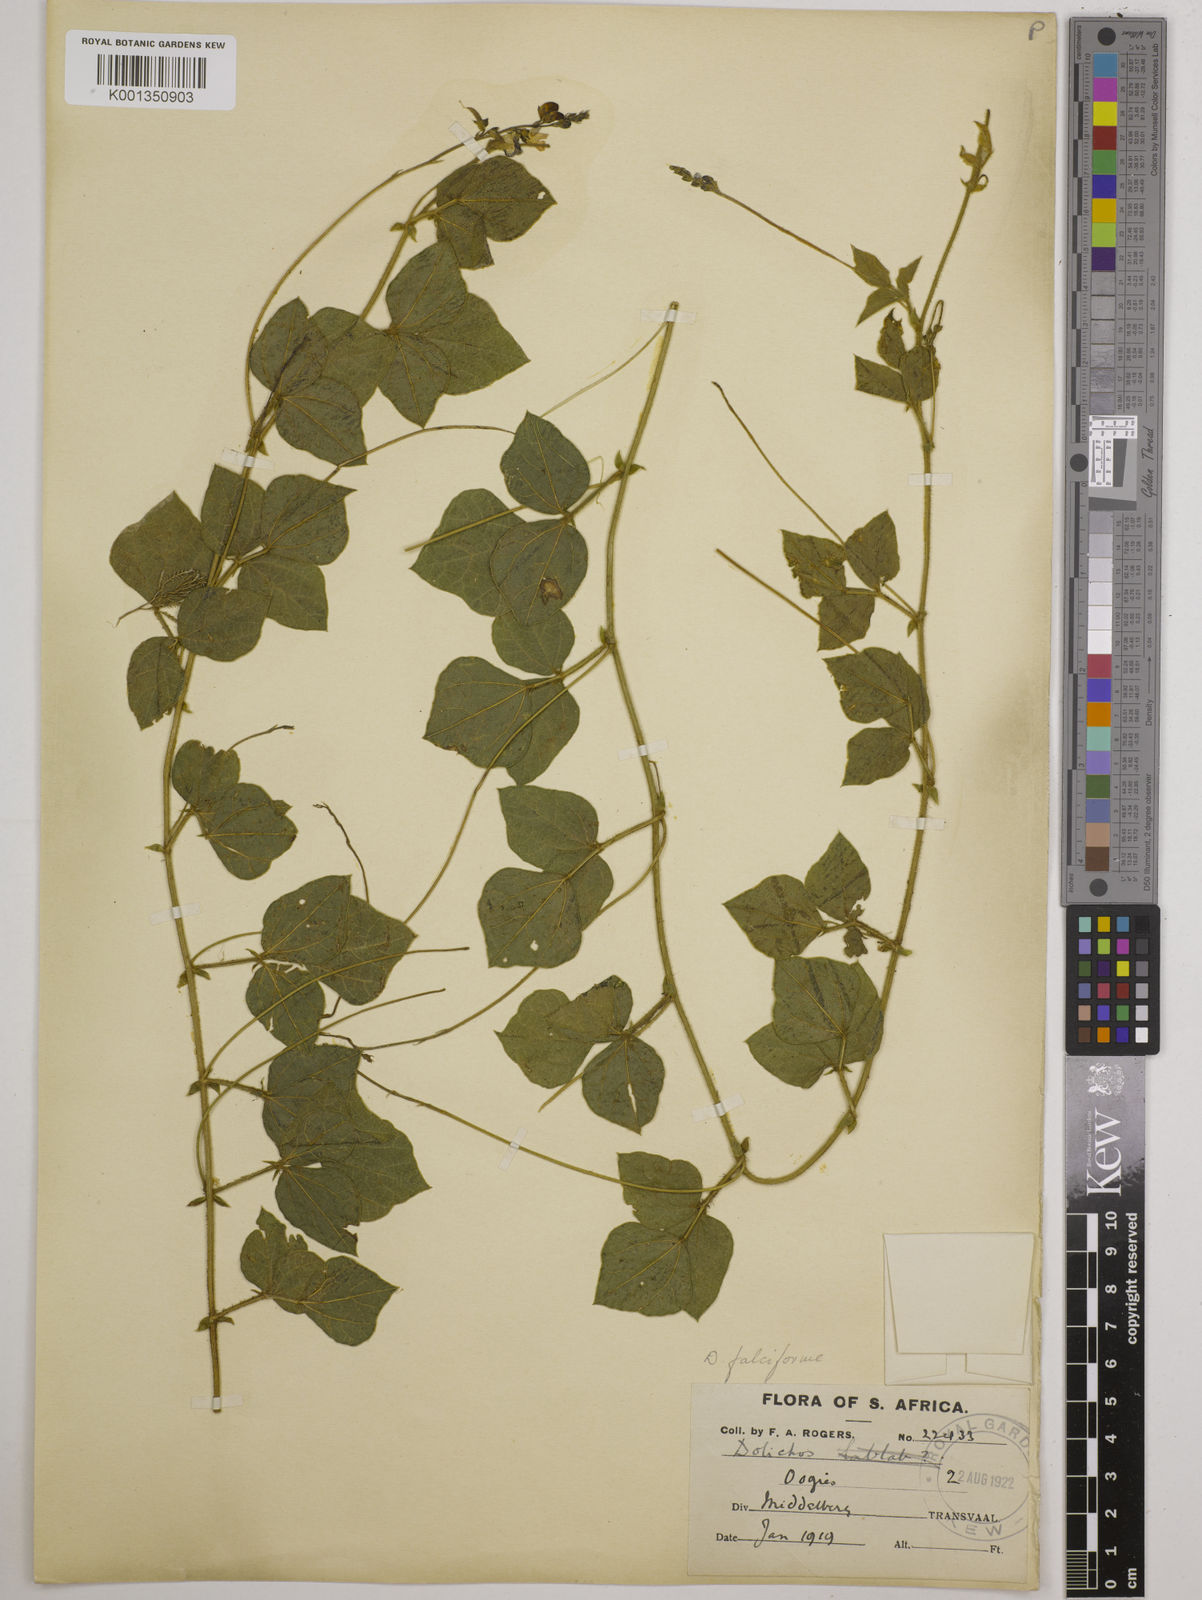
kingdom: Plantae
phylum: Tracheophyta
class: Magnoliopsida
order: Fabales
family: Fabaceae
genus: Dolichos
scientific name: Dolichos falciformis
